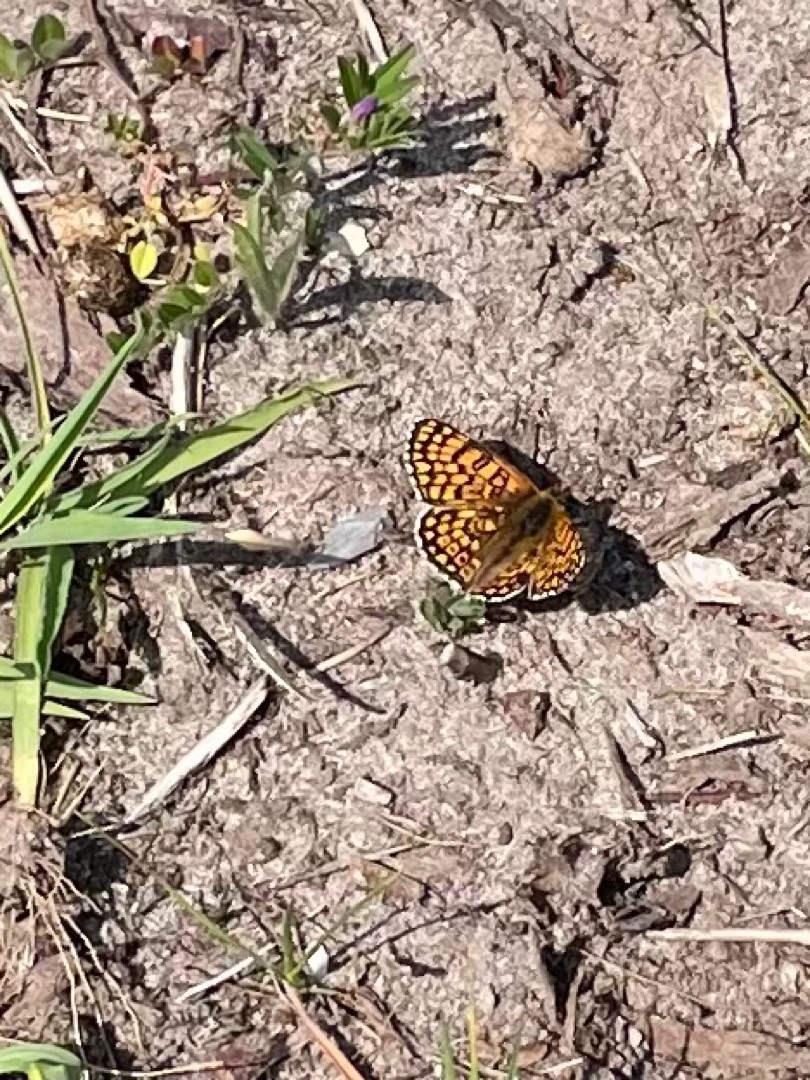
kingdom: Animalia
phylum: Arthropoda
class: Insecta
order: Lepidoptera
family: Nymphalidae
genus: Melitaea
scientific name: Melitaea cinxia
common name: Okkergul pletvinge
